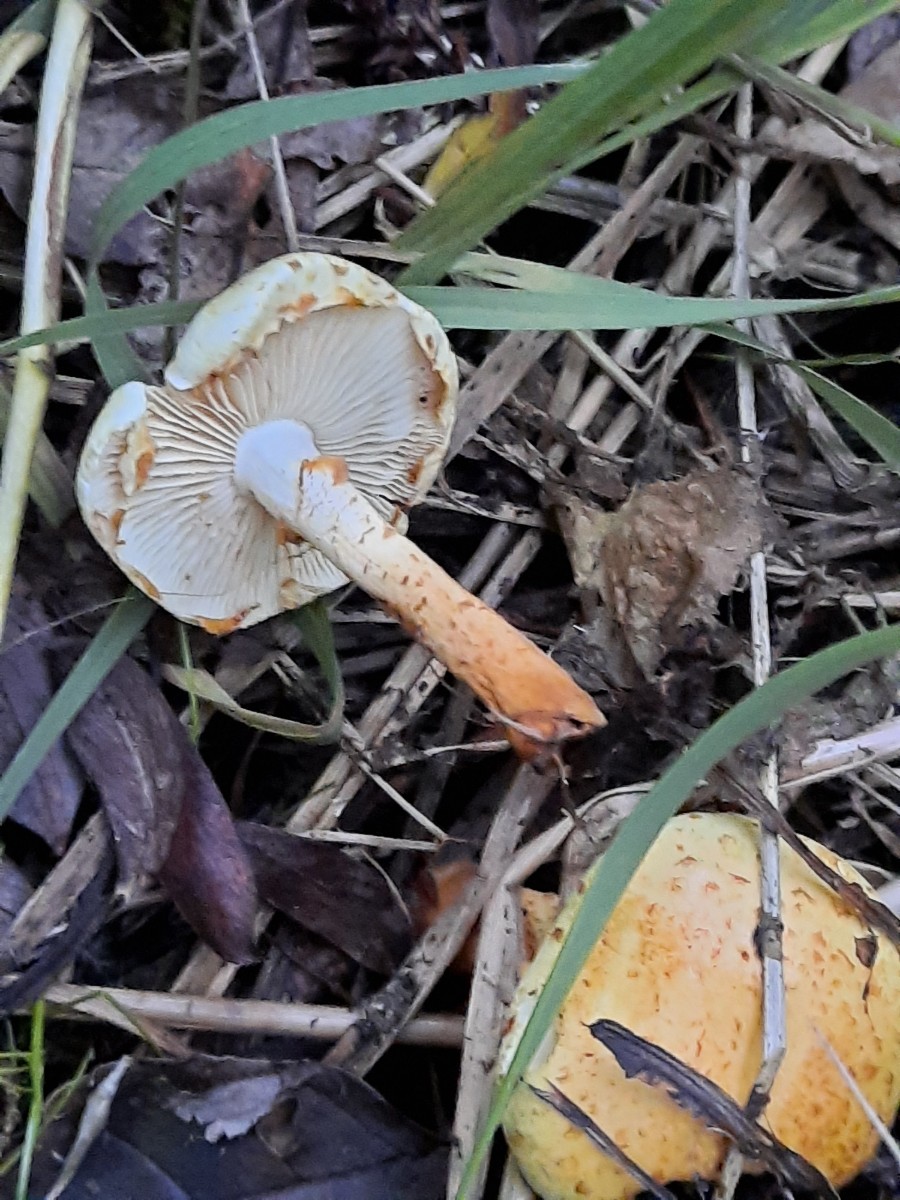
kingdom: Fungi
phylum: Basidiomycota
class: Agaricomycetes
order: Agaricales
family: Strophariaceae
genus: Pholiota
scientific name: Pholiota conissans
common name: pile-skælhat
